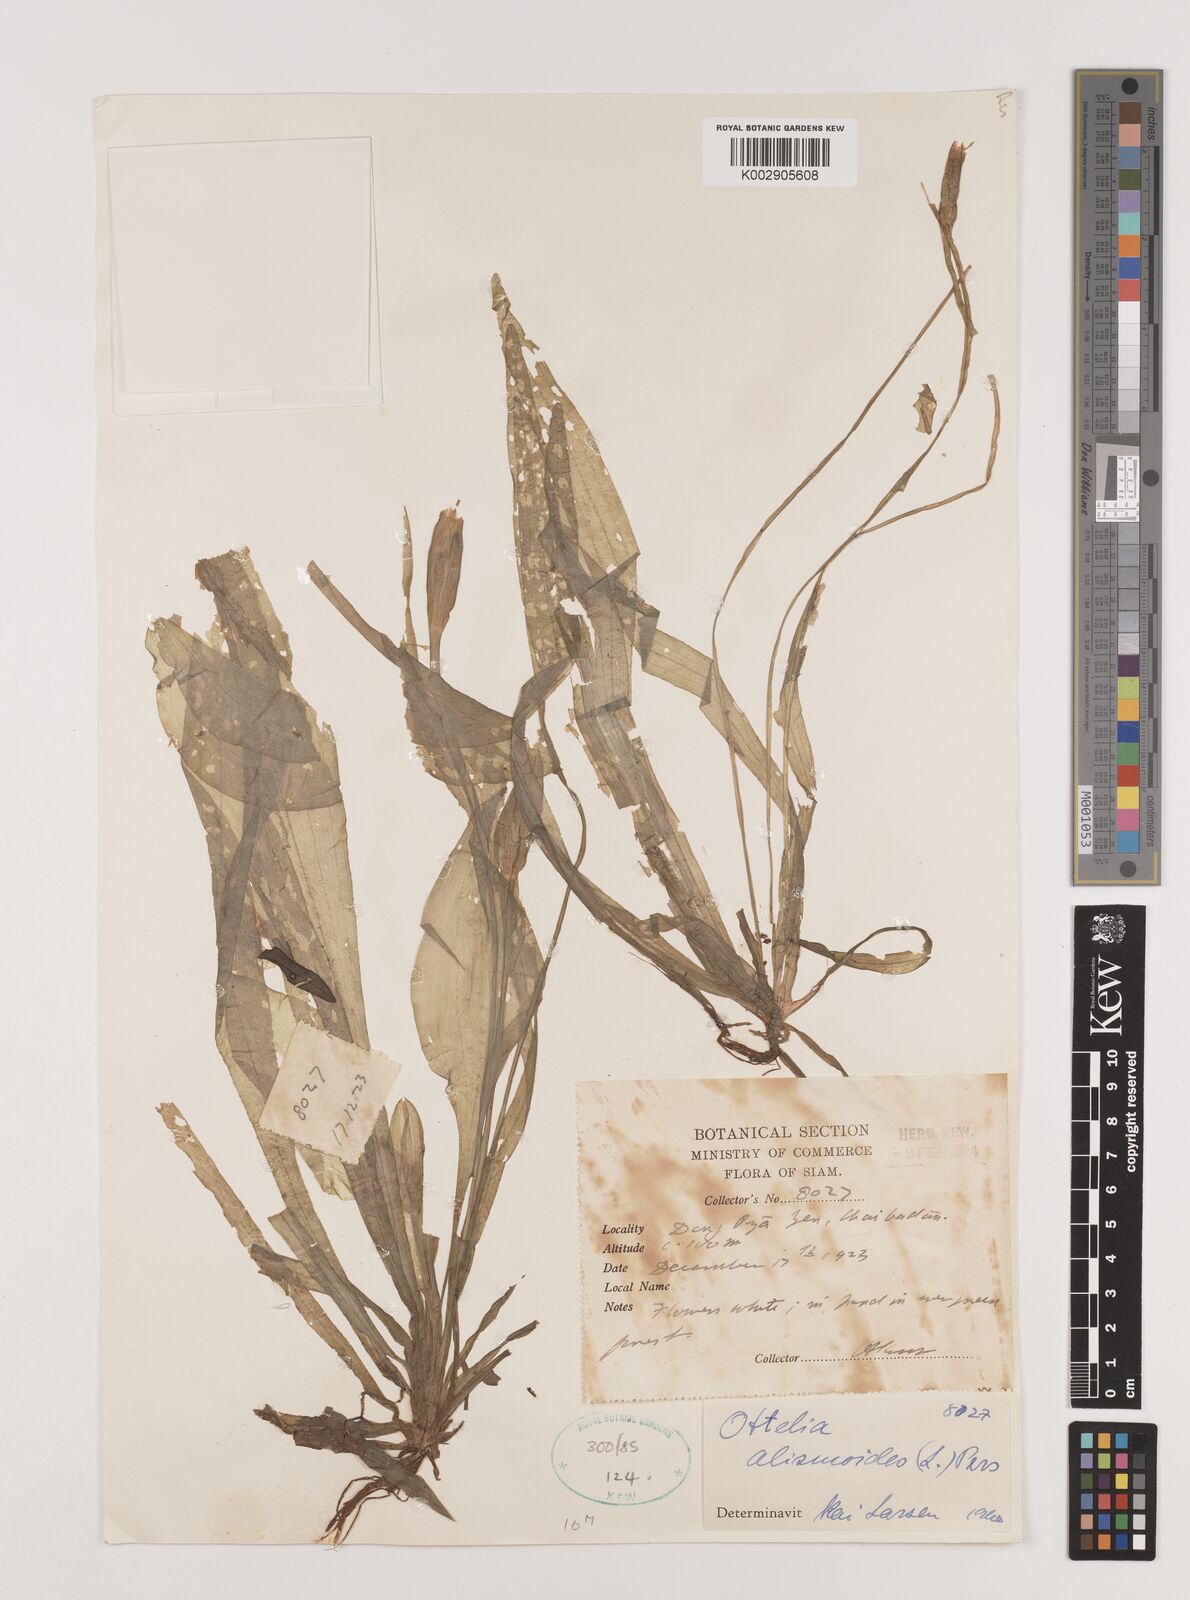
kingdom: Plantae
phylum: Tracheophyta
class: Liliopsida
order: Alismatales
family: Hydrocharitaceae
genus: Ottelia
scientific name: Ottelia alismoides
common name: Duck-lettuce
